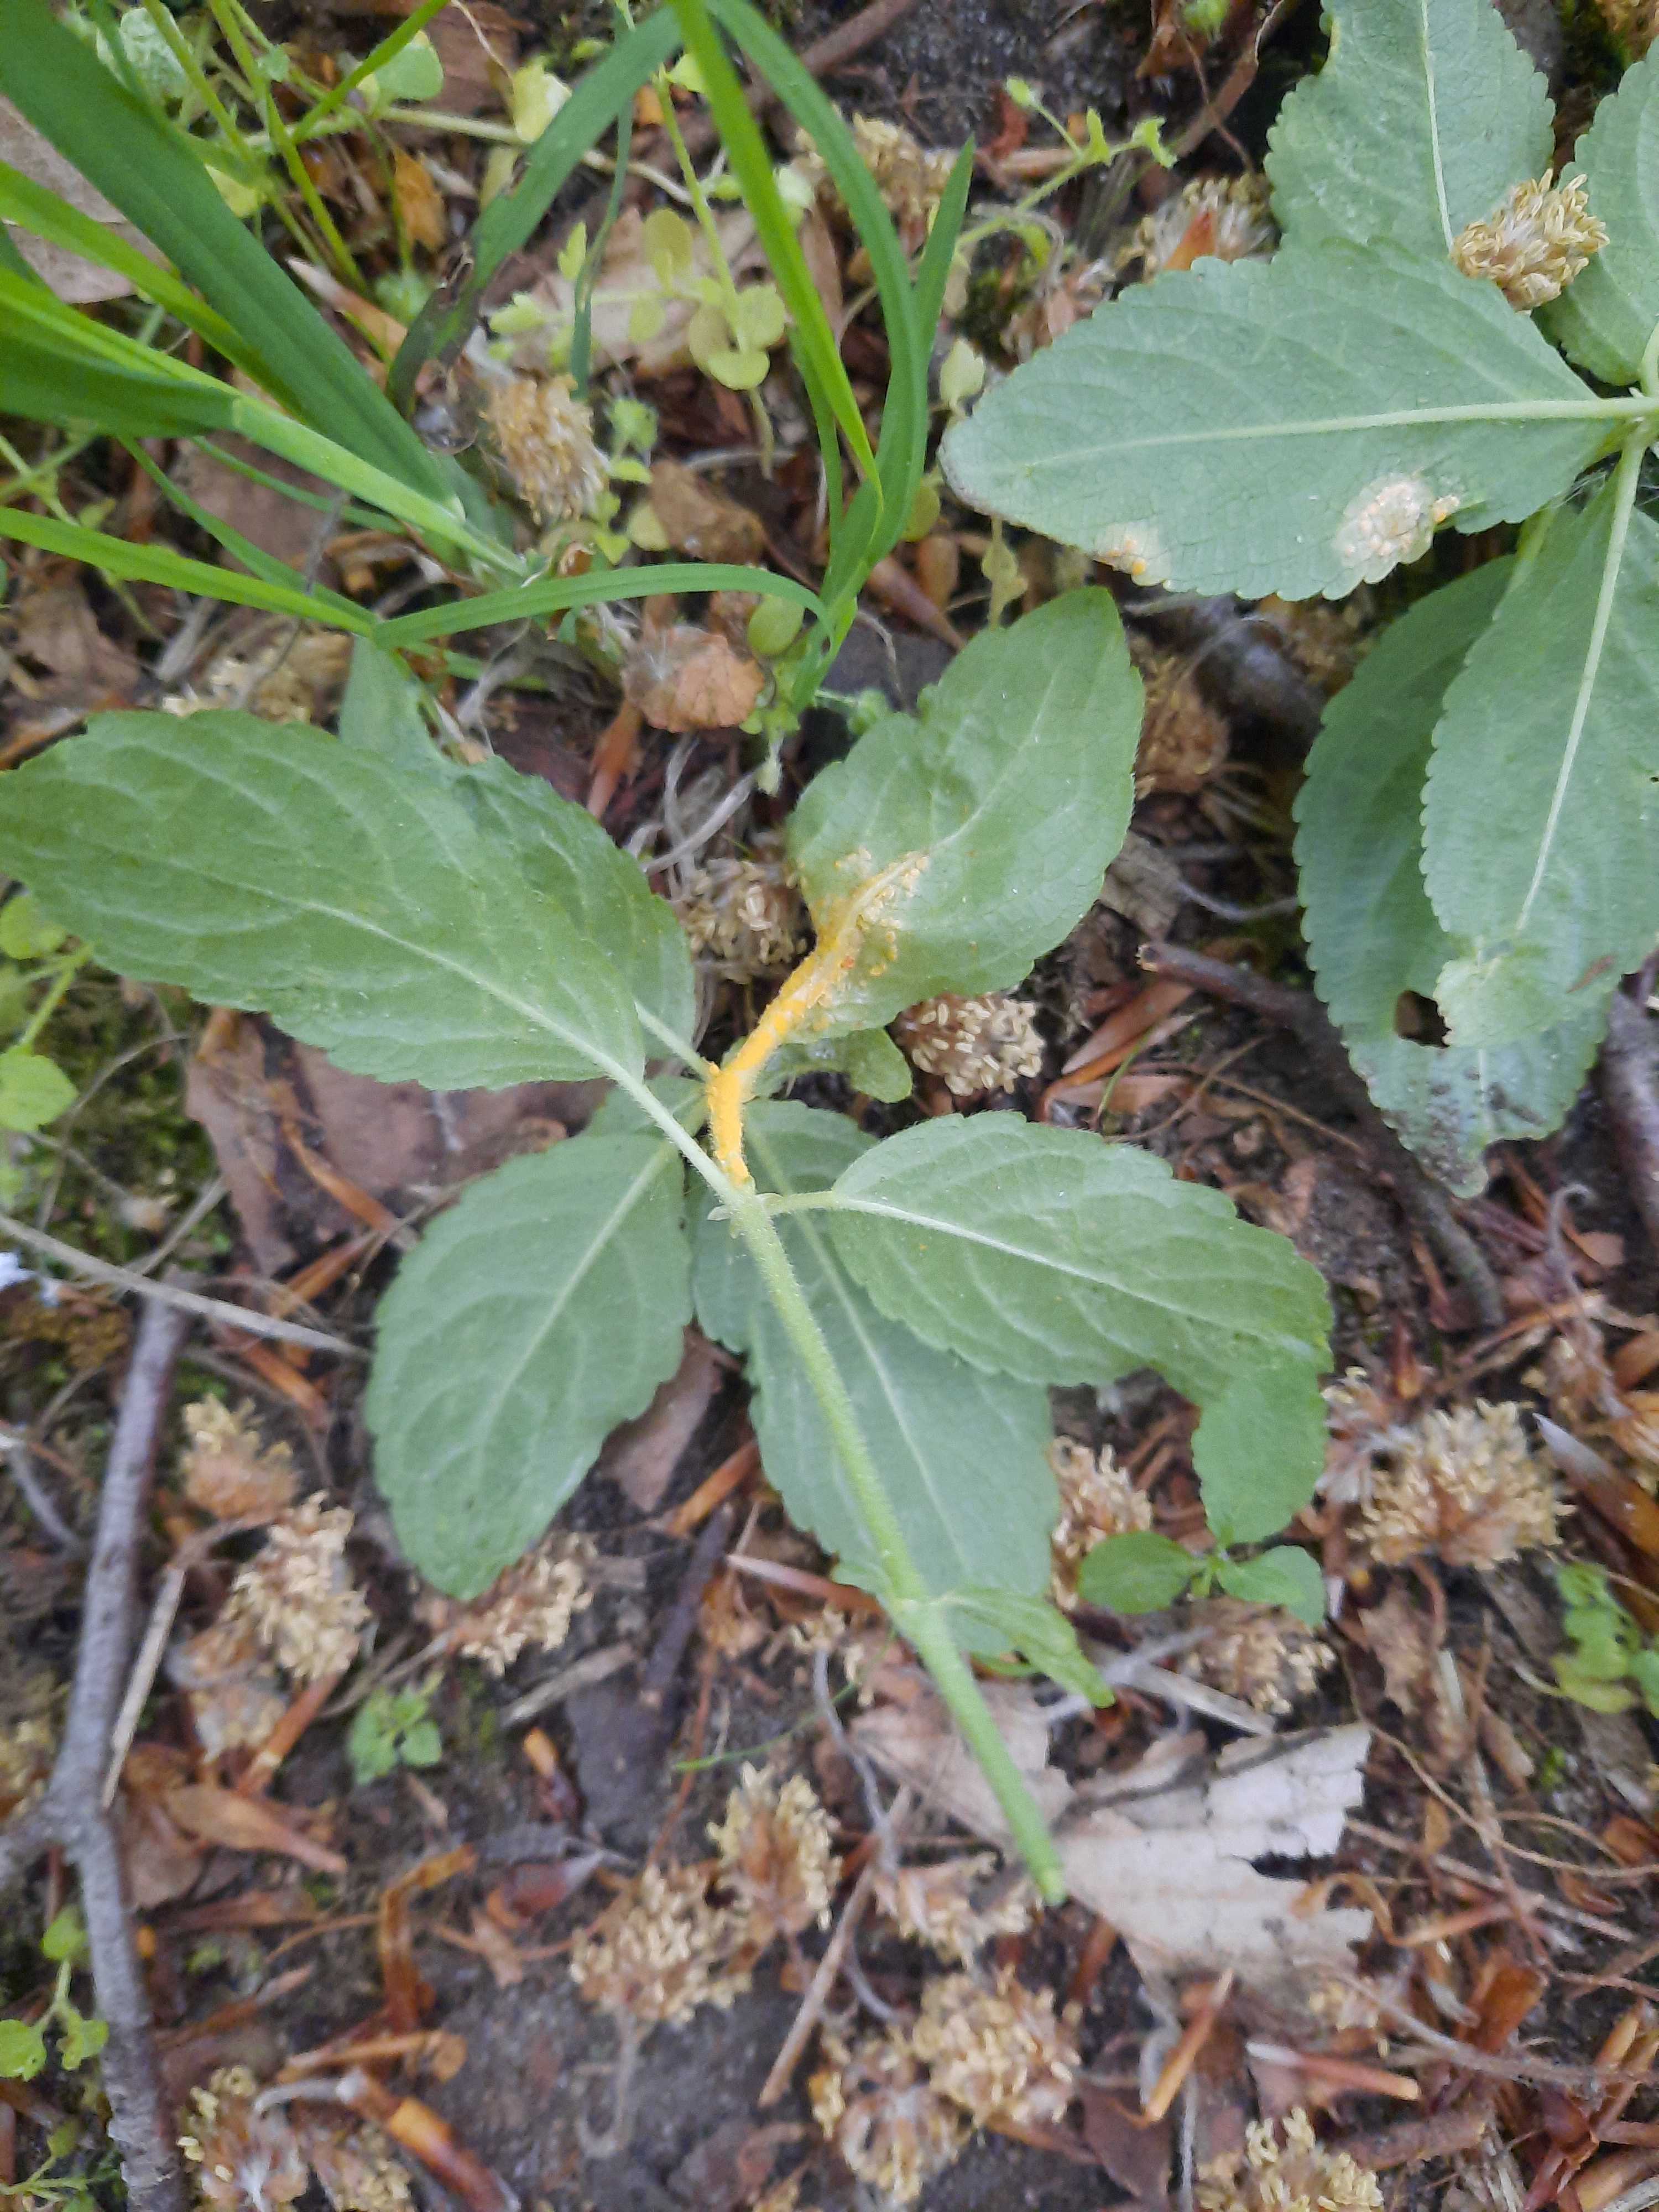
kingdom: Fungi
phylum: Basidiomycota
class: Pucciniomycetes
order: Pucciniales
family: Melampsoraceae
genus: Melampsora
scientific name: Melampsora populnea
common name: poppel-skorperust
